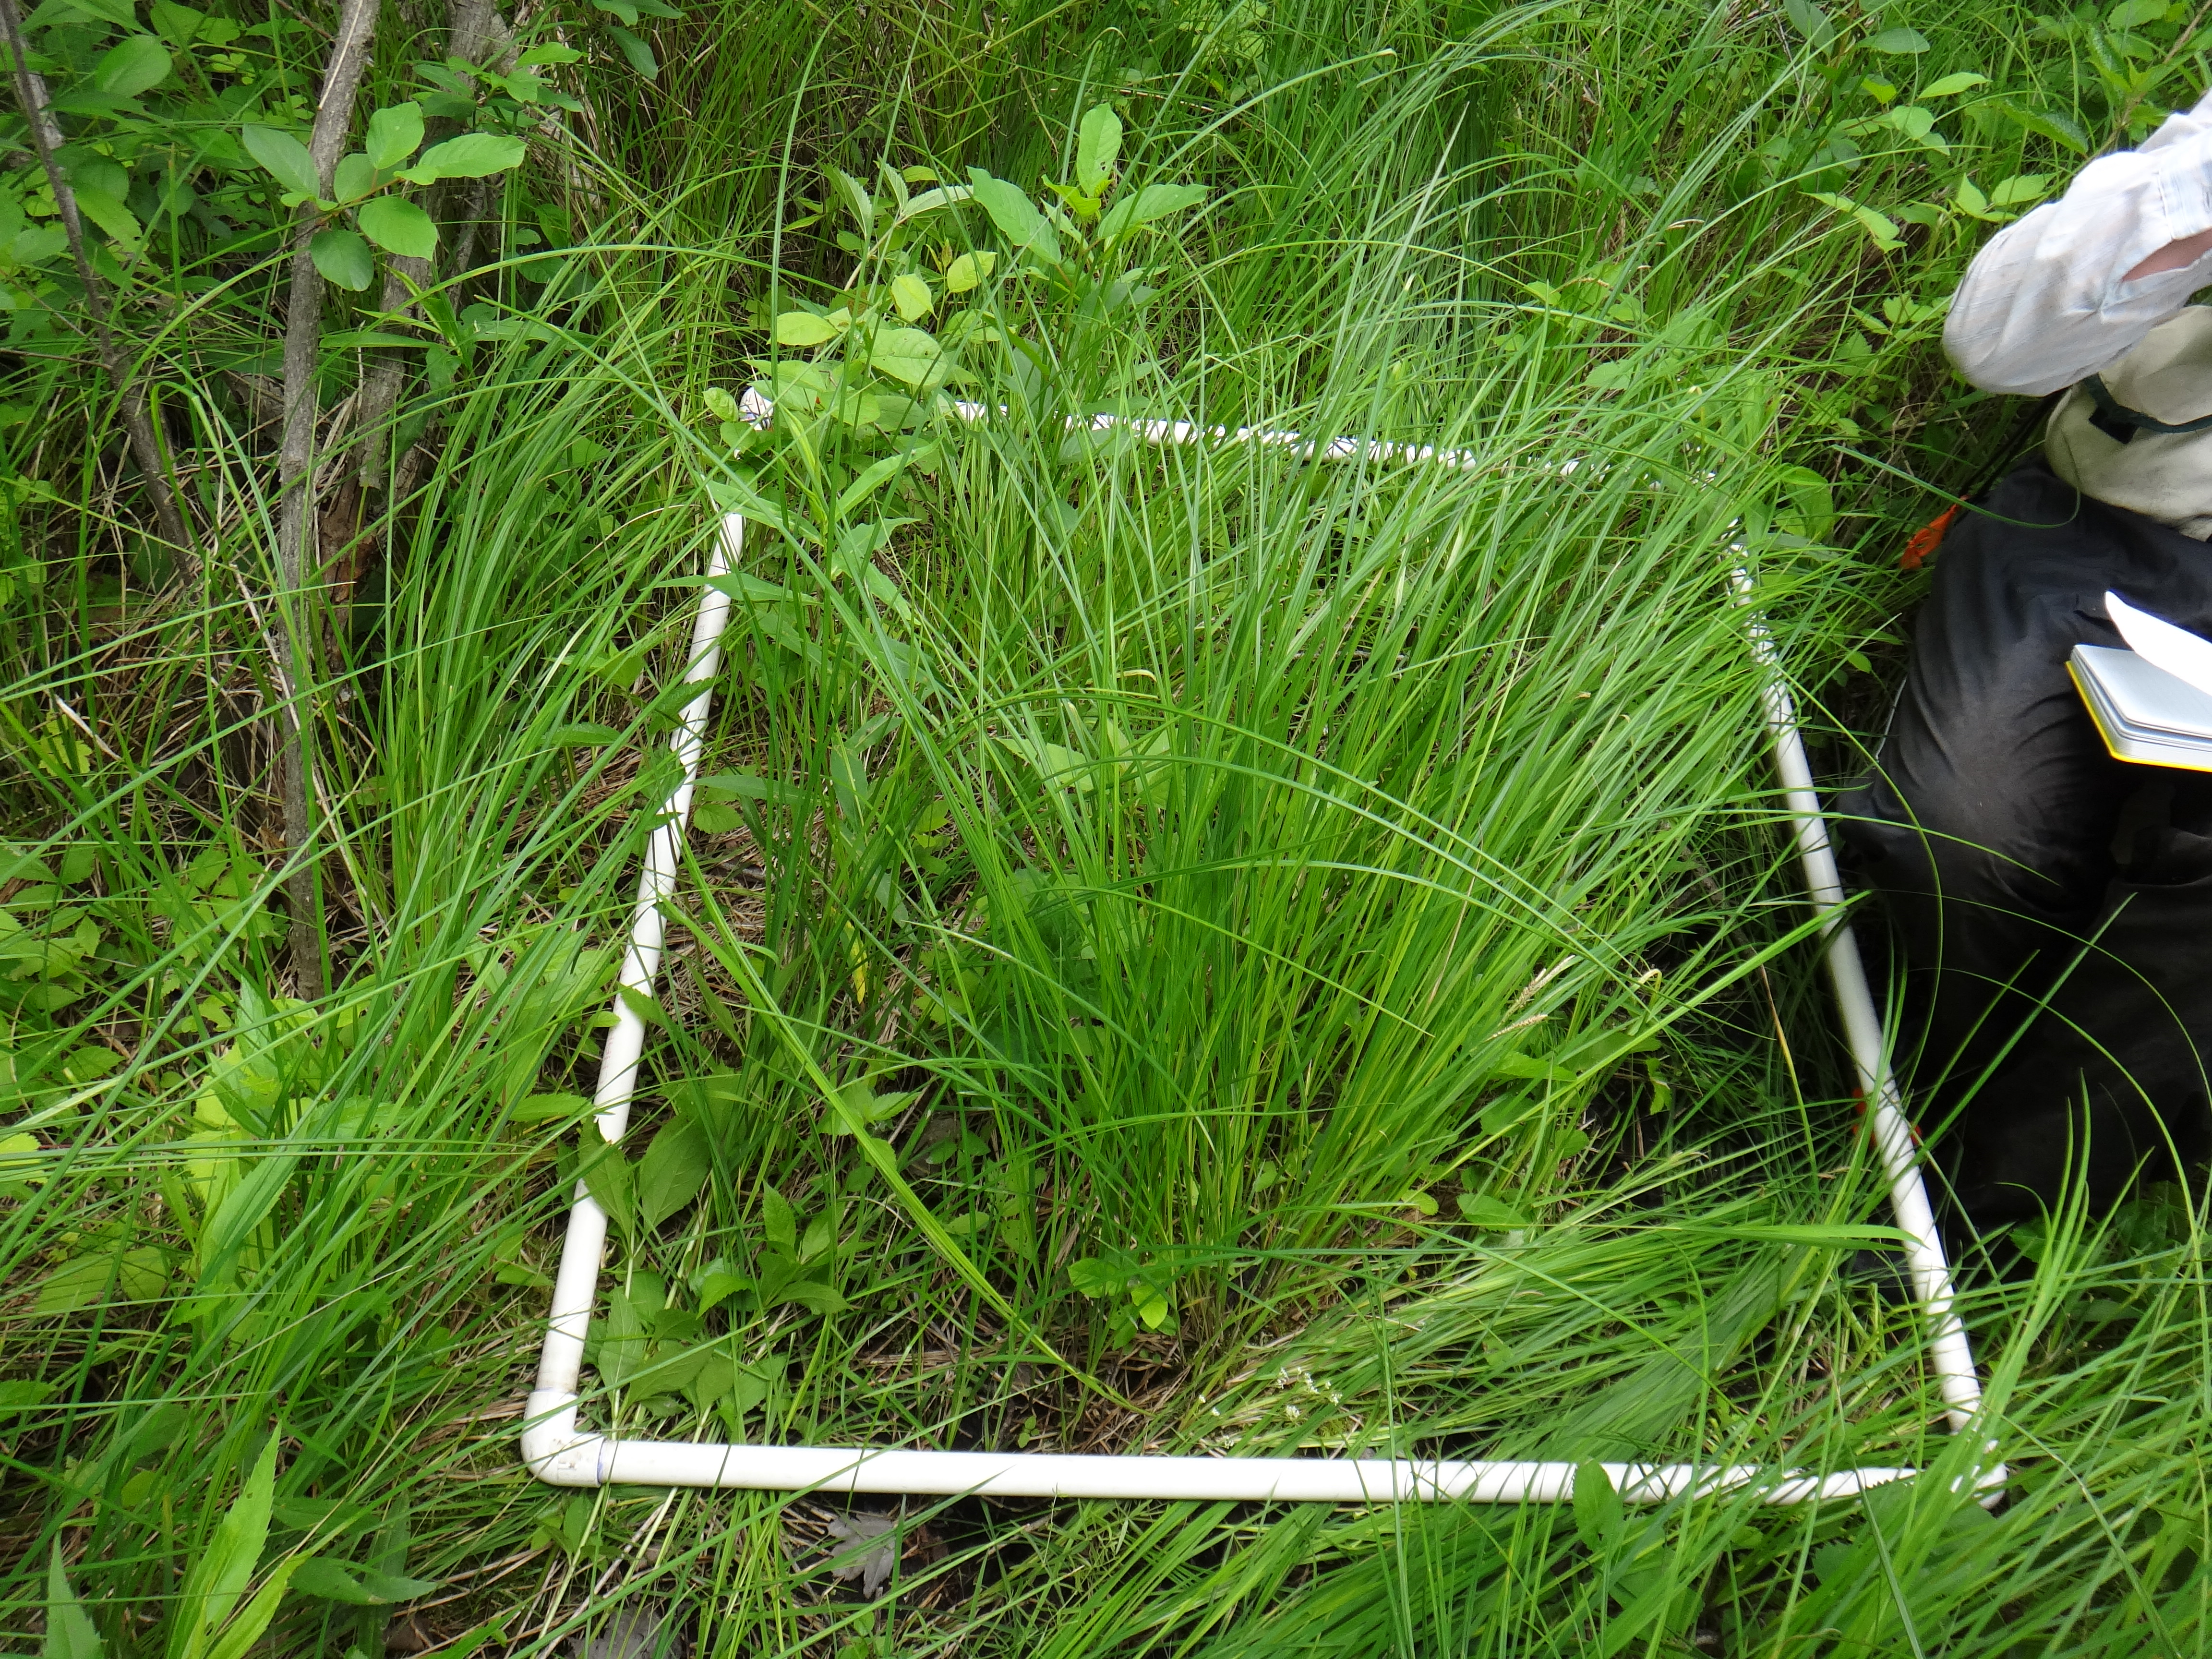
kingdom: Plantae
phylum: Tracheophyta
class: Magnoliopsida
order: Rosales
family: Rosaceae
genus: Dasiphora
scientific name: Dasiphora fruticosa
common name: Shrubby cinquefoil
